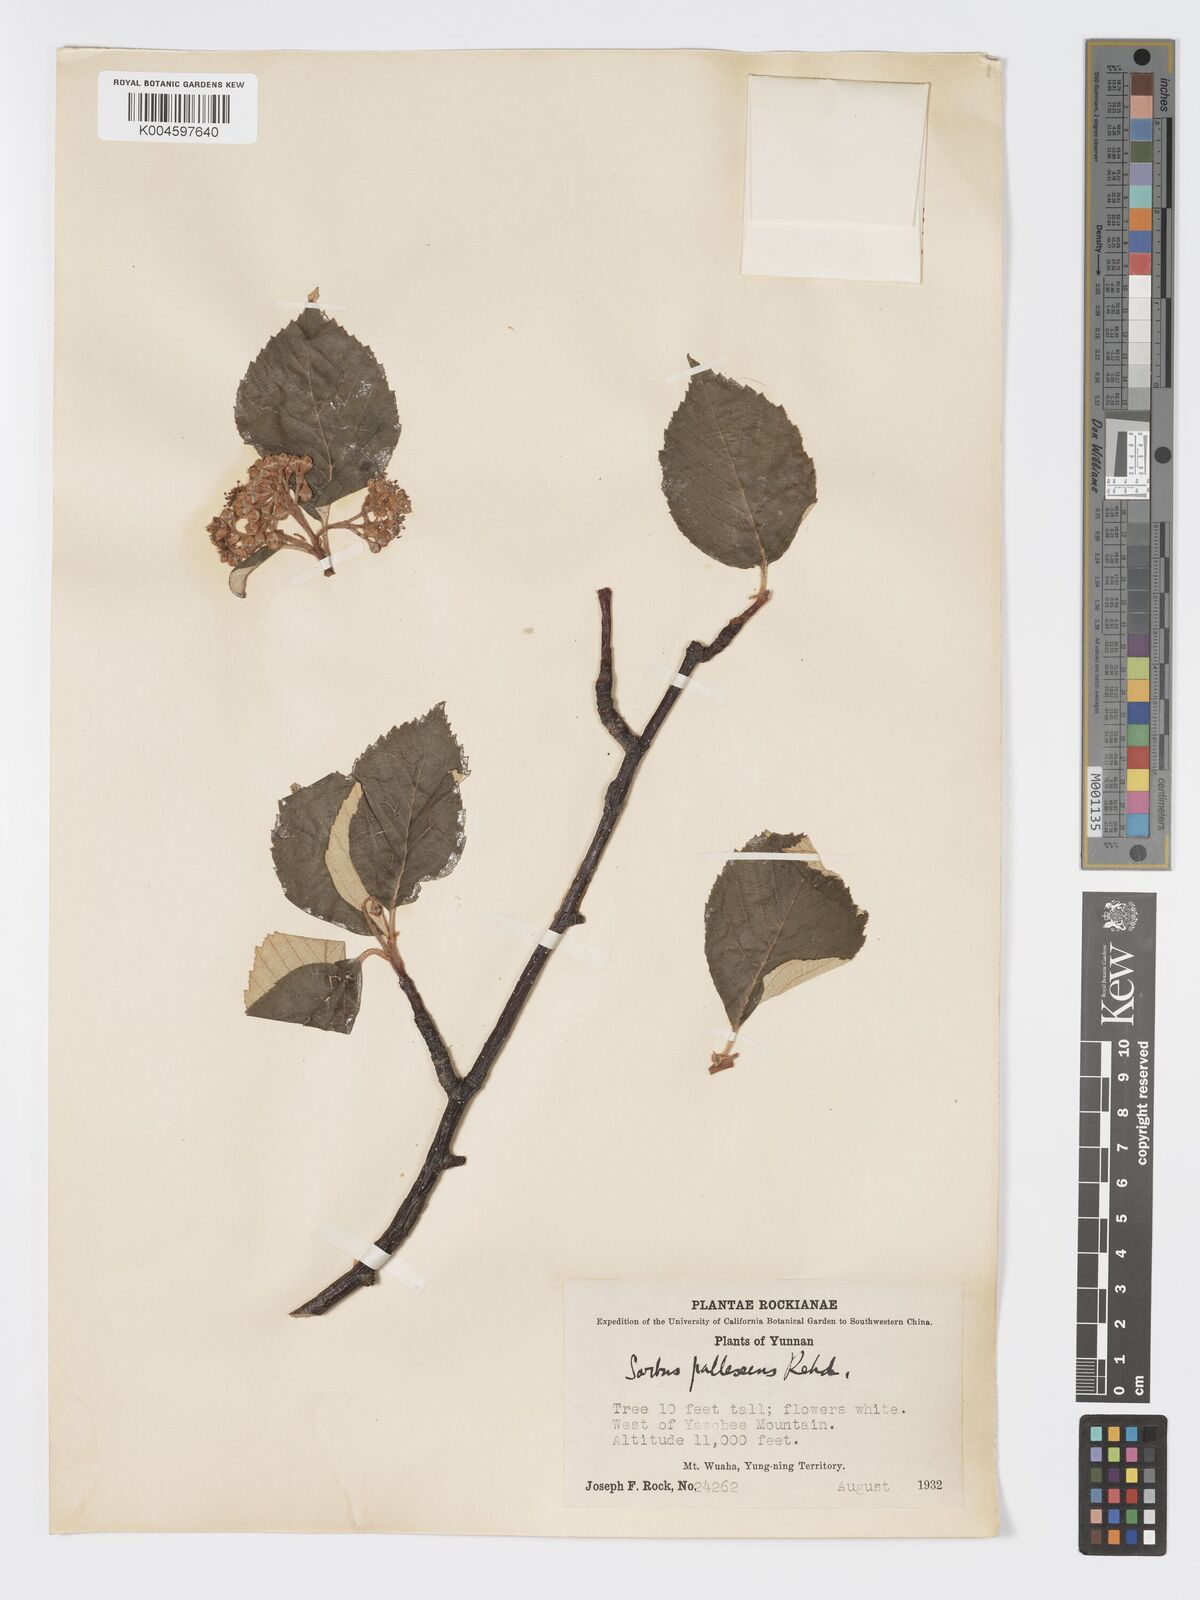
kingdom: Plantae
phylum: Tracheophyta
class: Magnoliopsida
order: Rosales
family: Rosaceae
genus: Sorbus
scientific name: Sorbus pallescens
